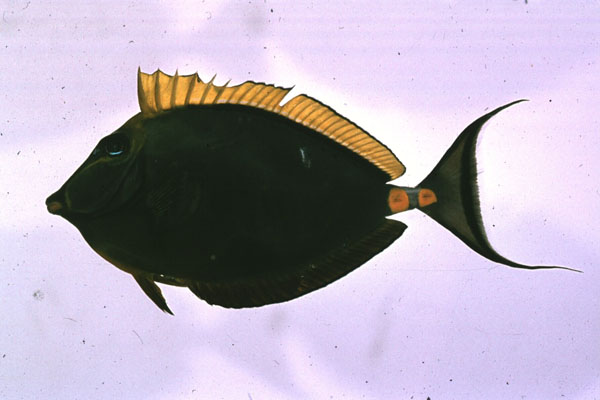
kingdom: Animalia
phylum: Chordata
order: Perciformes
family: Acanthuridae
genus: Naso
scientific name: Naso lituratus
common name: Orangespine unicornfish
